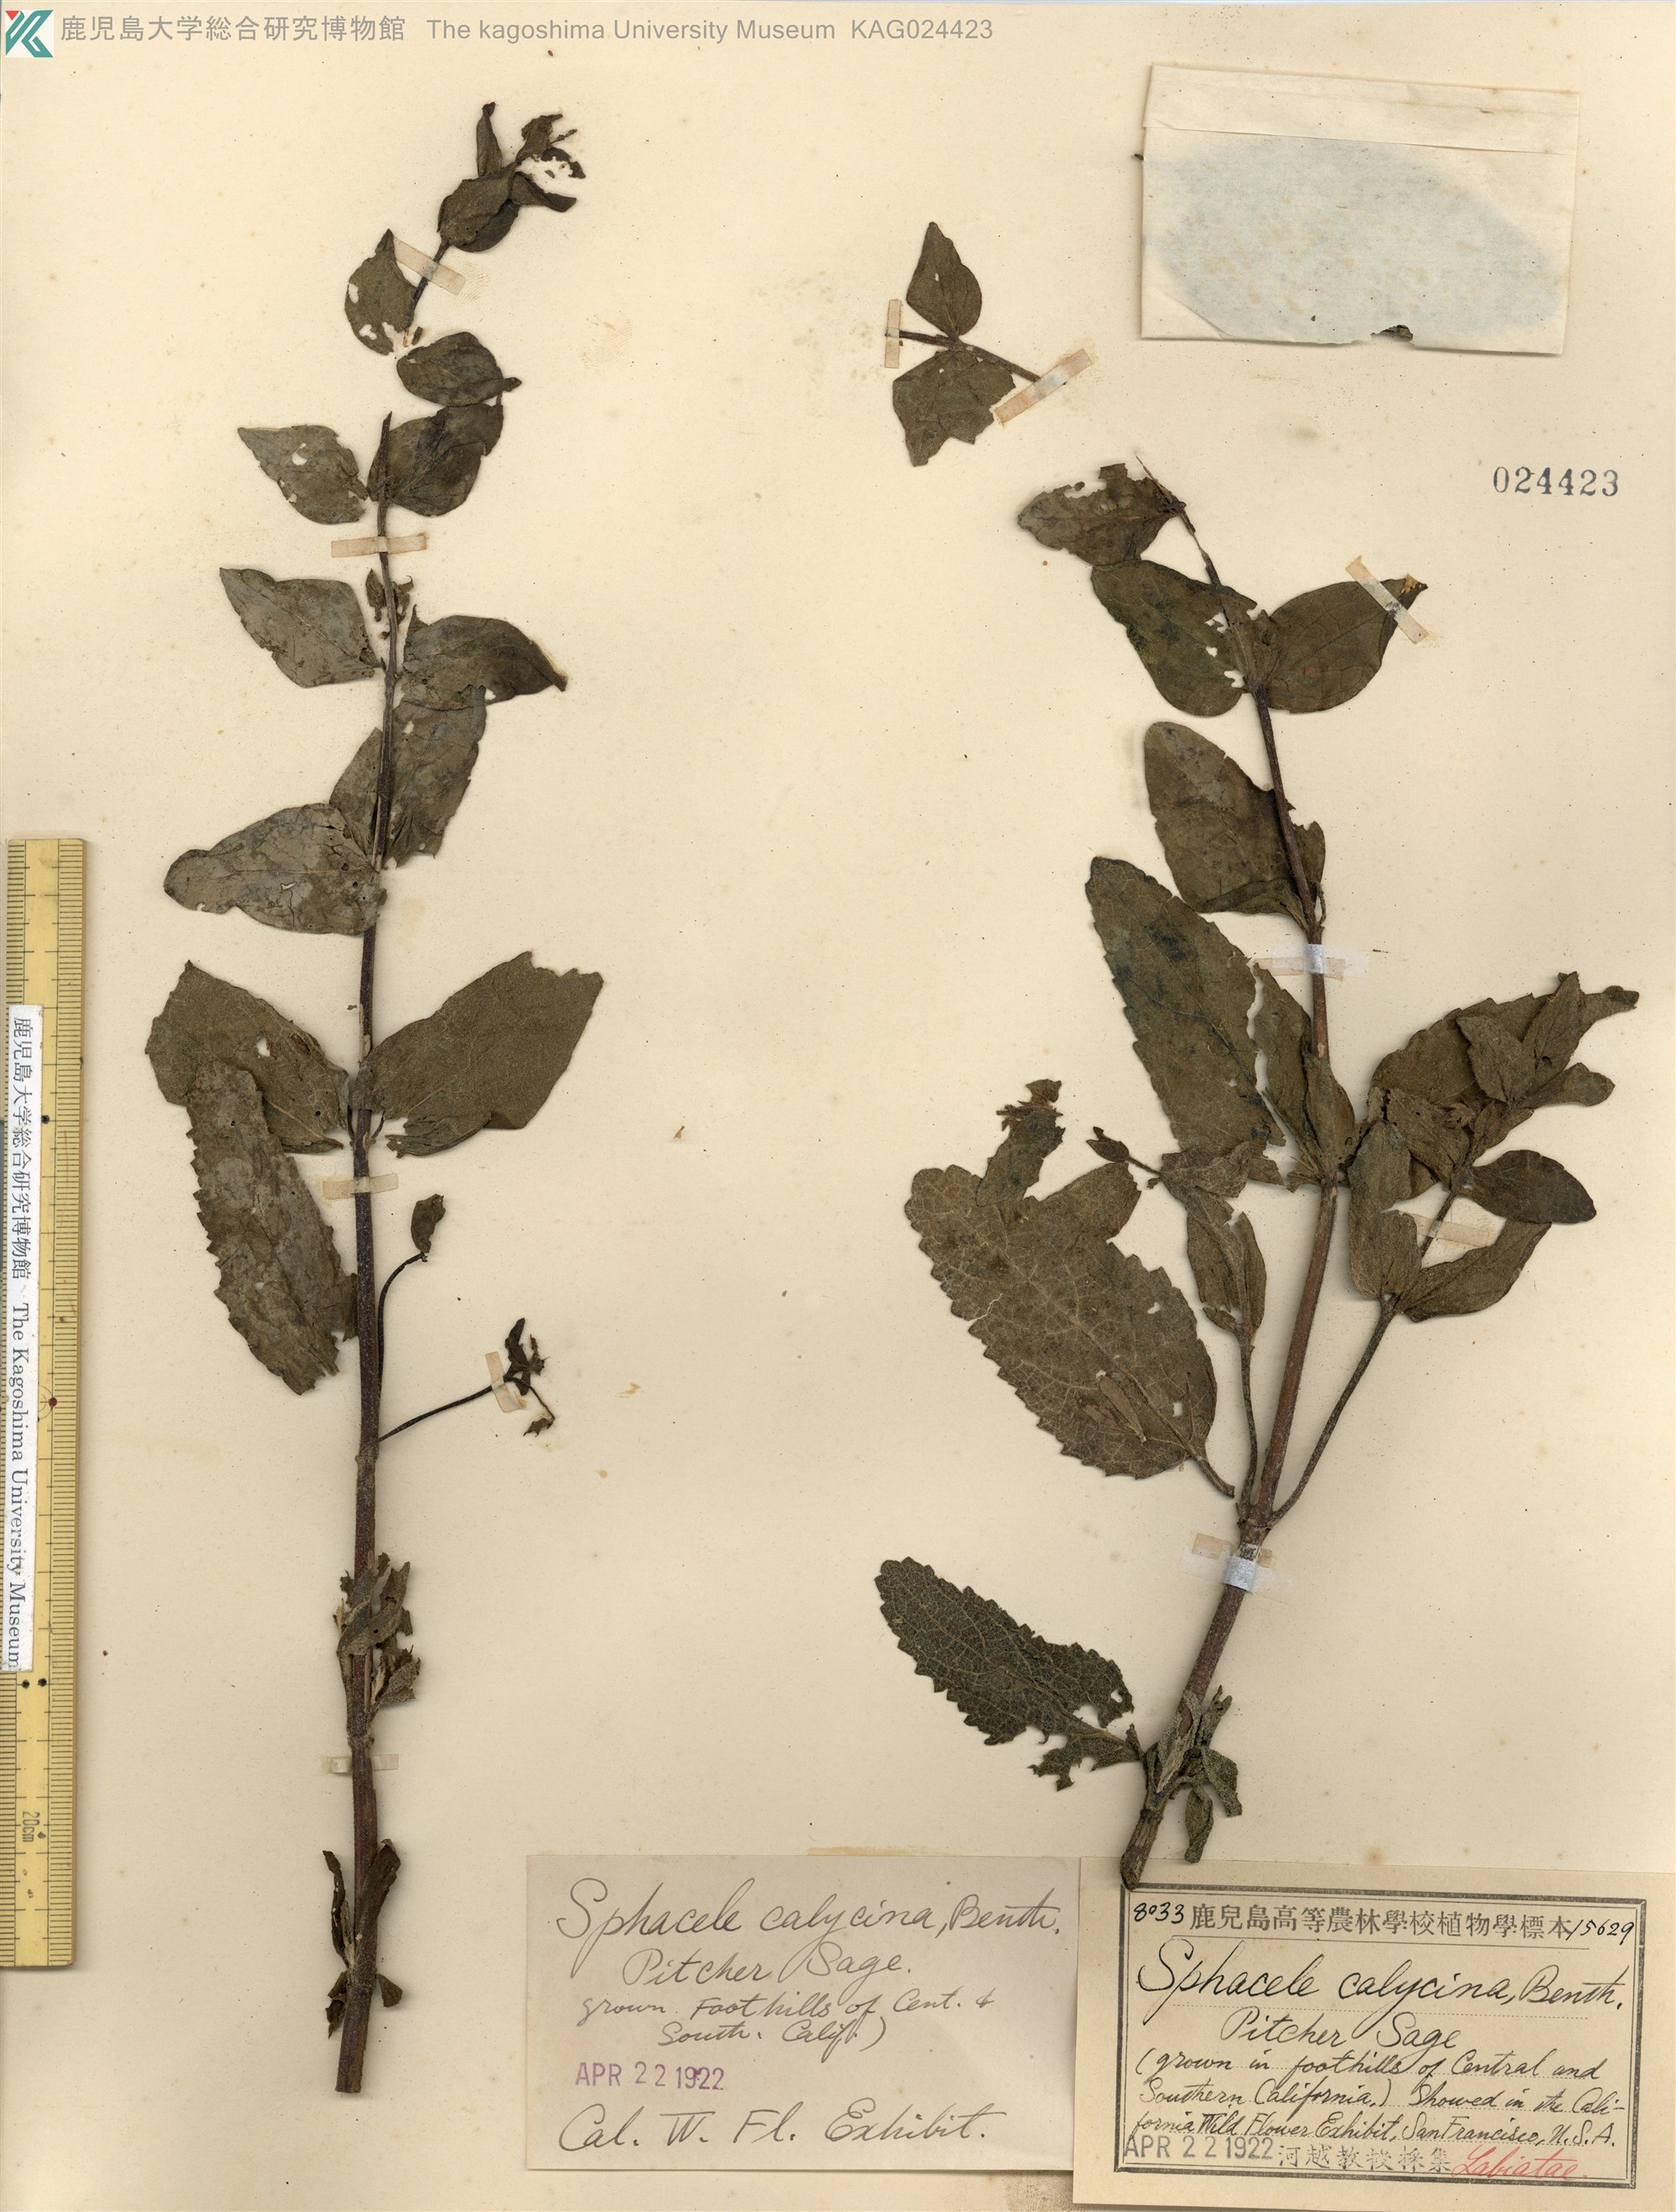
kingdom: Plantae
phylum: Tracheophyta
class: Magnoliopsida
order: Lamiales
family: Lamiaceae
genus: Lepechinia
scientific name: Lepechinia calycina
